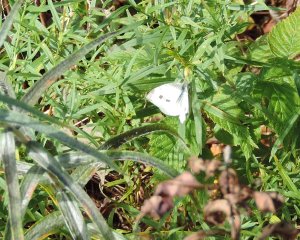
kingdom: Animalia
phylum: Arthropoda
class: Insecta
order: Lepidoptera
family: Pieridae
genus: Pieris
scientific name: Pieris rapae
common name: Cabbage White
